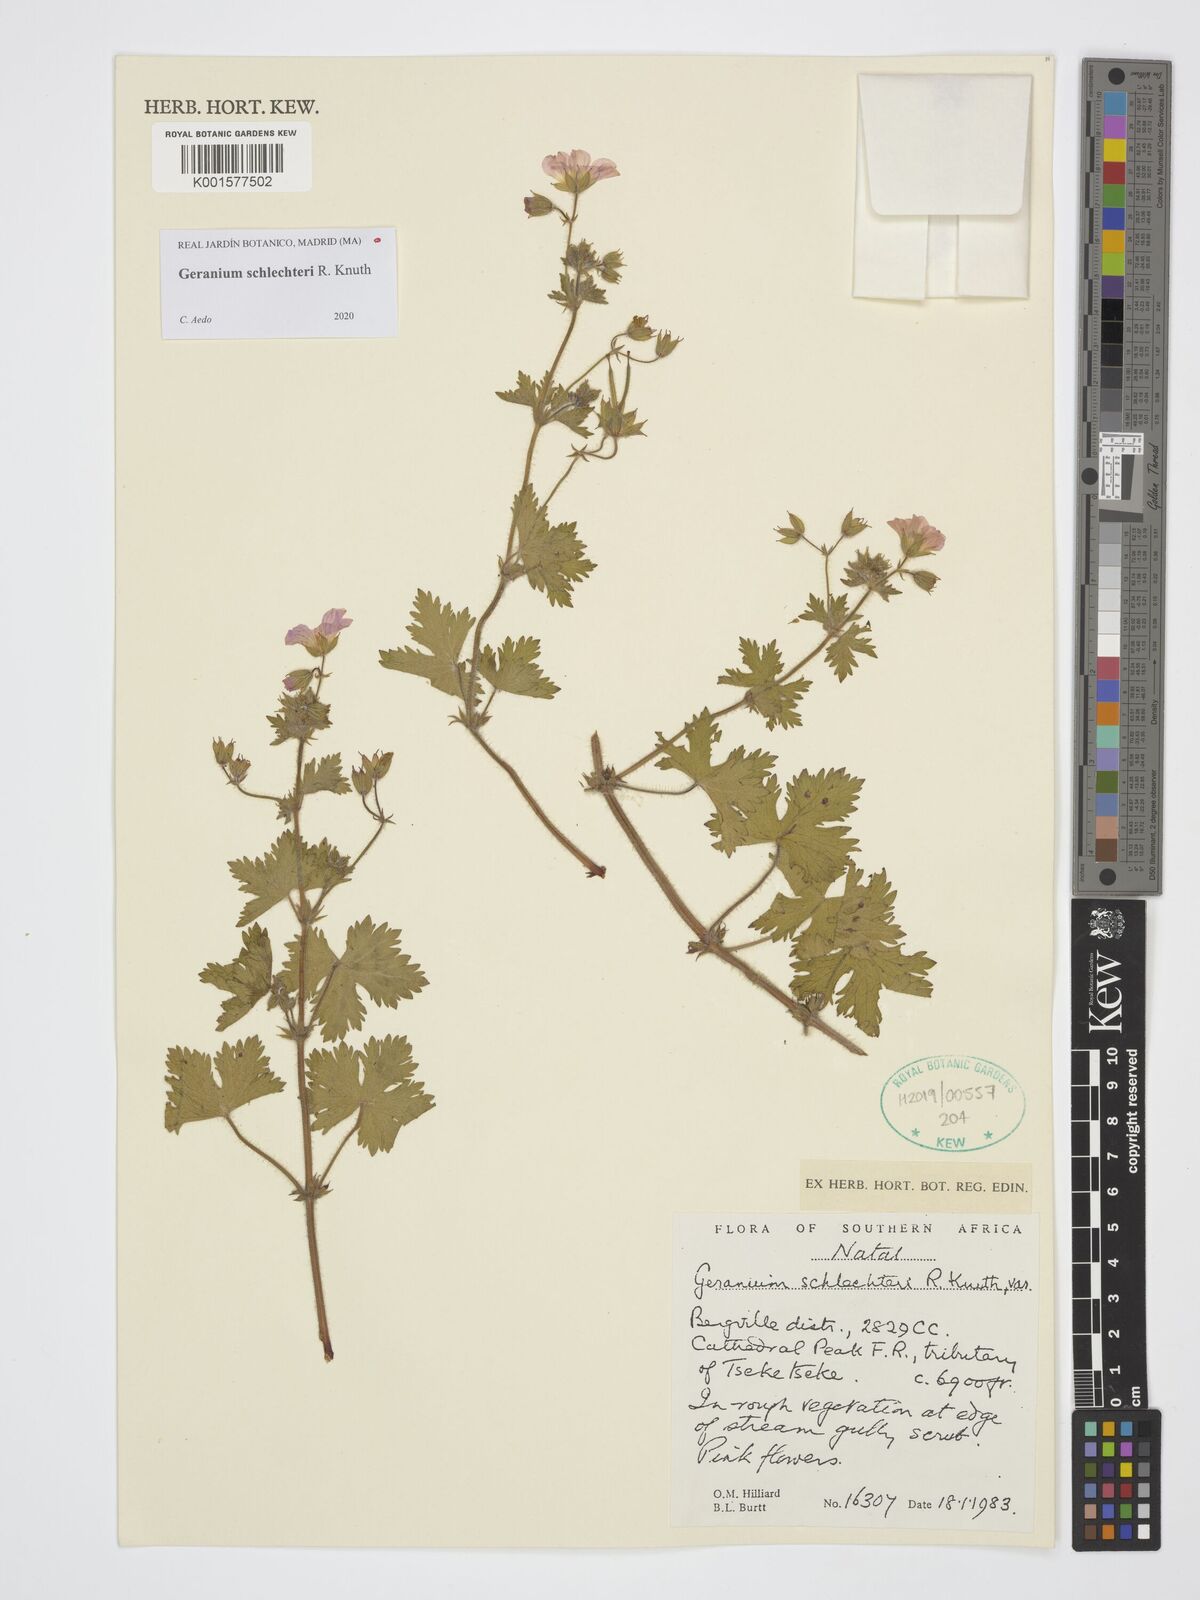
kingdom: Plantae
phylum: Tracheophyta
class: Magnoliopsida
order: Geraniales
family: Geraniaceae
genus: Geranium
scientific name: Geranium schlechteri
